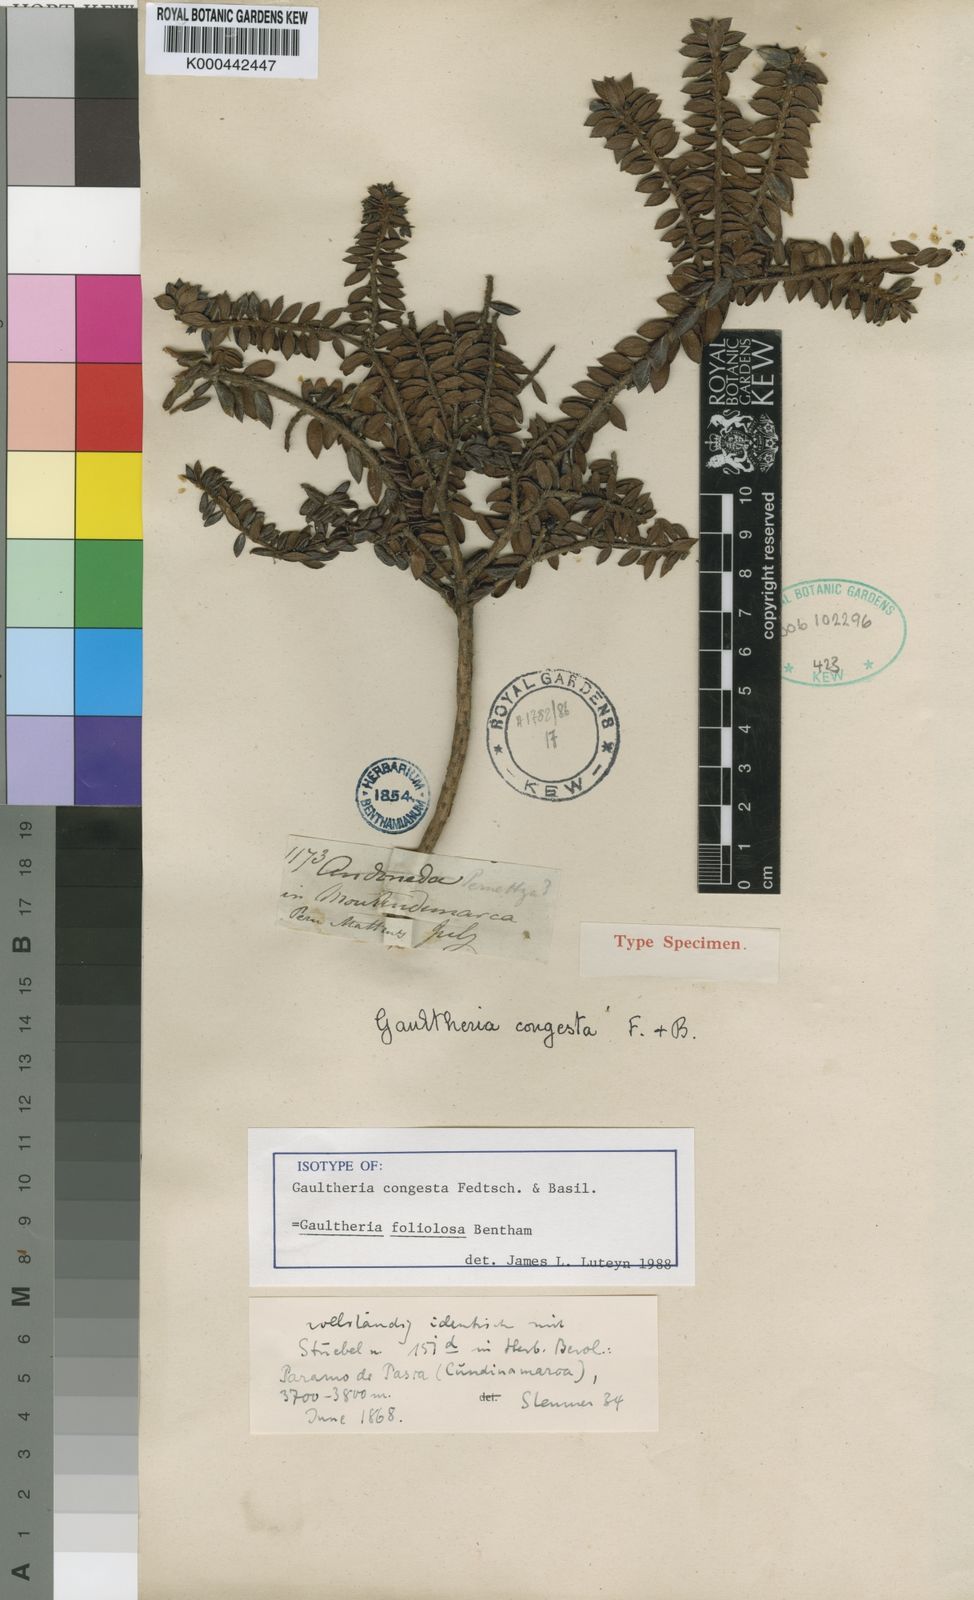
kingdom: Plantae
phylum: Tracheophyta
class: Magnoliopsida
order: Ericales
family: Ericaceae
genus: Gaultheria
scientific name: Gaultheria foliolosa
